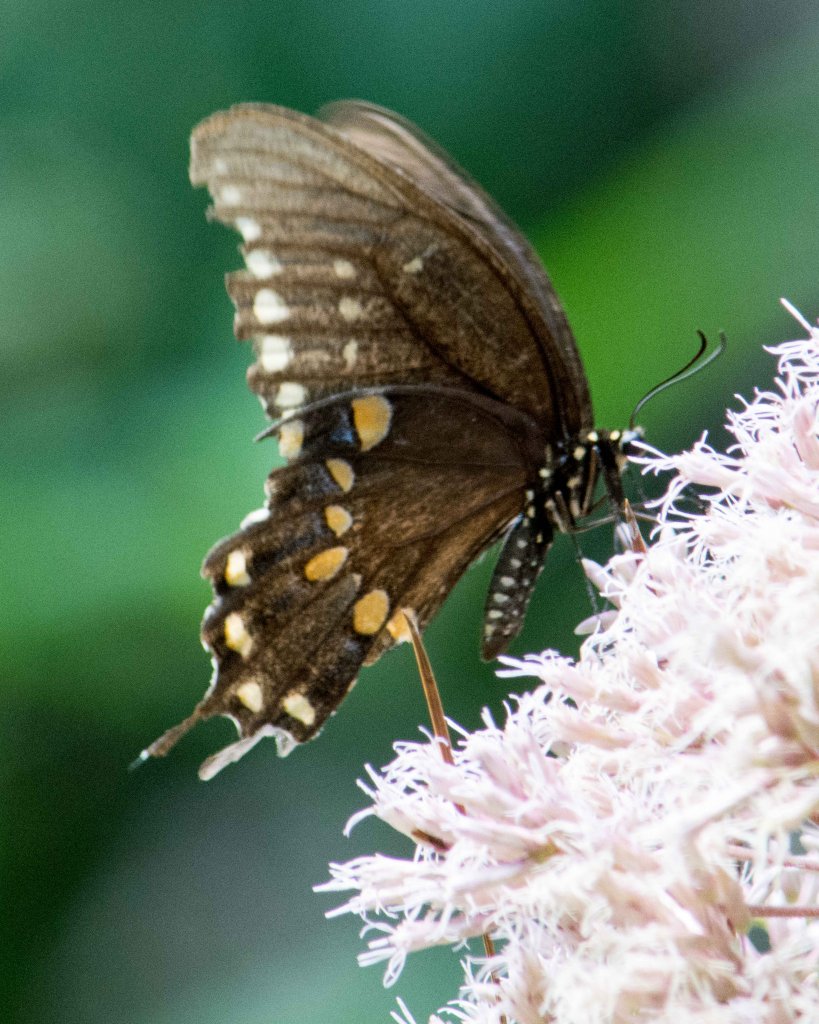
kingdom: Animalia
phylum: Arthropoda
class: Insecta
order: Lepidoptera
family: Papilionidae
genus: Pterourus
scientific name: Pterourus troilus
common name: Spicebush Swallowtail
